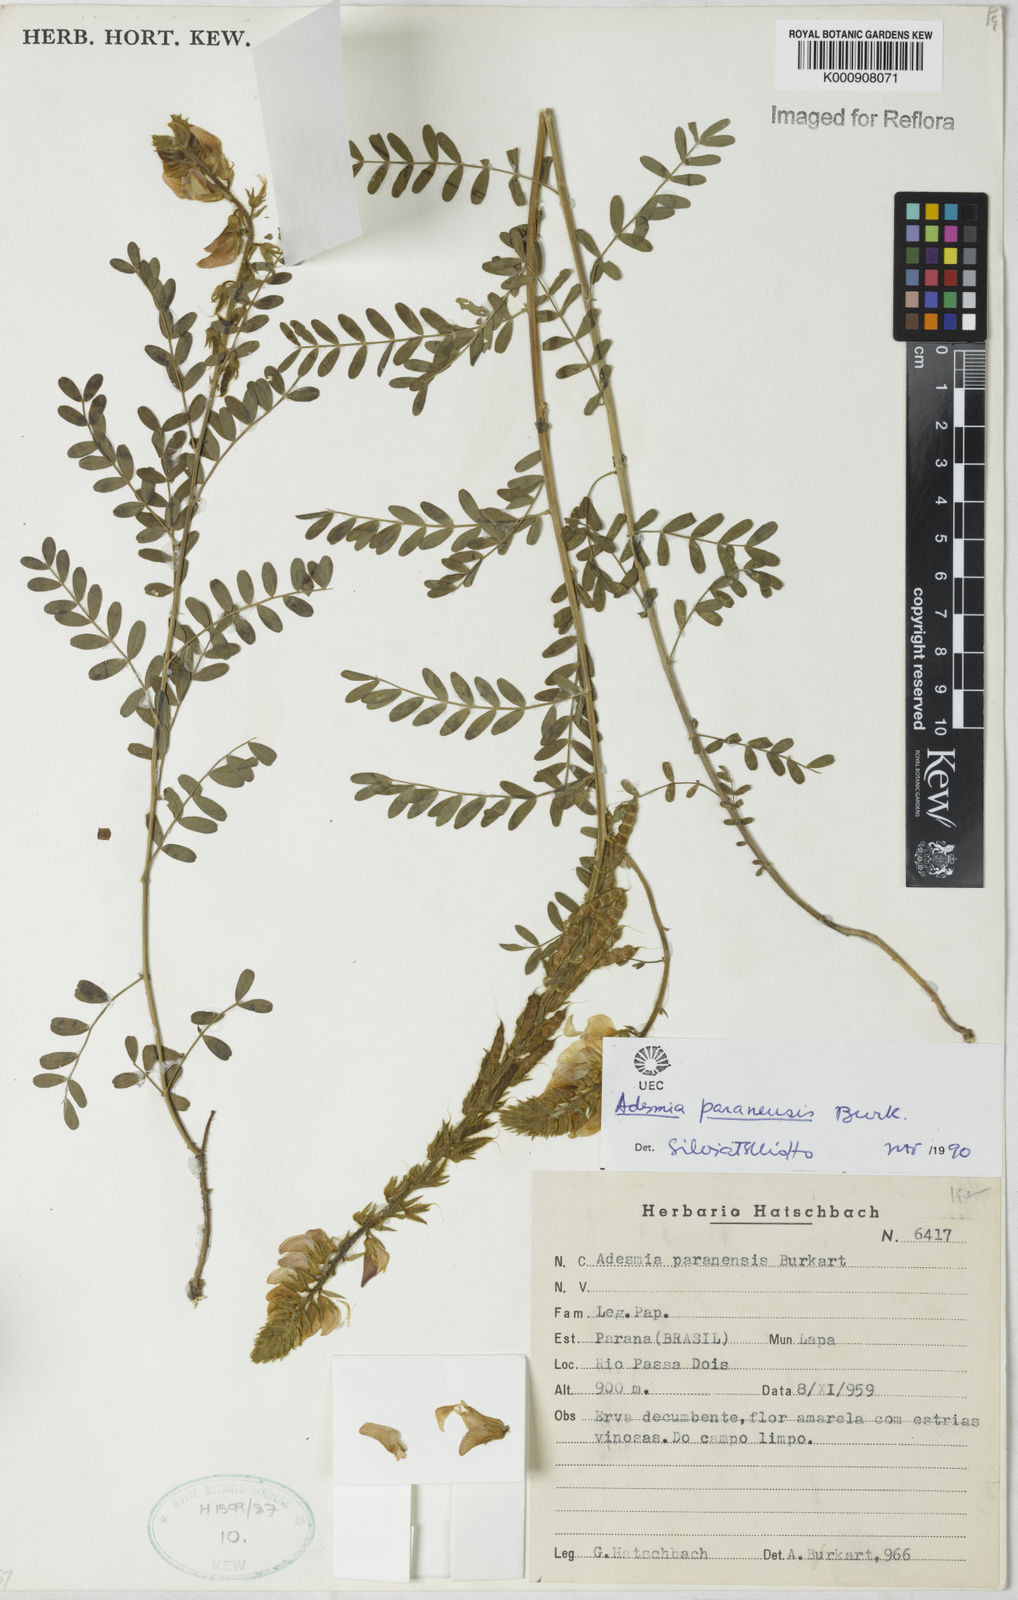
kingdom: Plantae
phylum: Tracheophyta
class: Magnoliopsida
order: Fabales
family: Fabaceae
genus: Adesmia
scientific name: Adesmia paranensis
